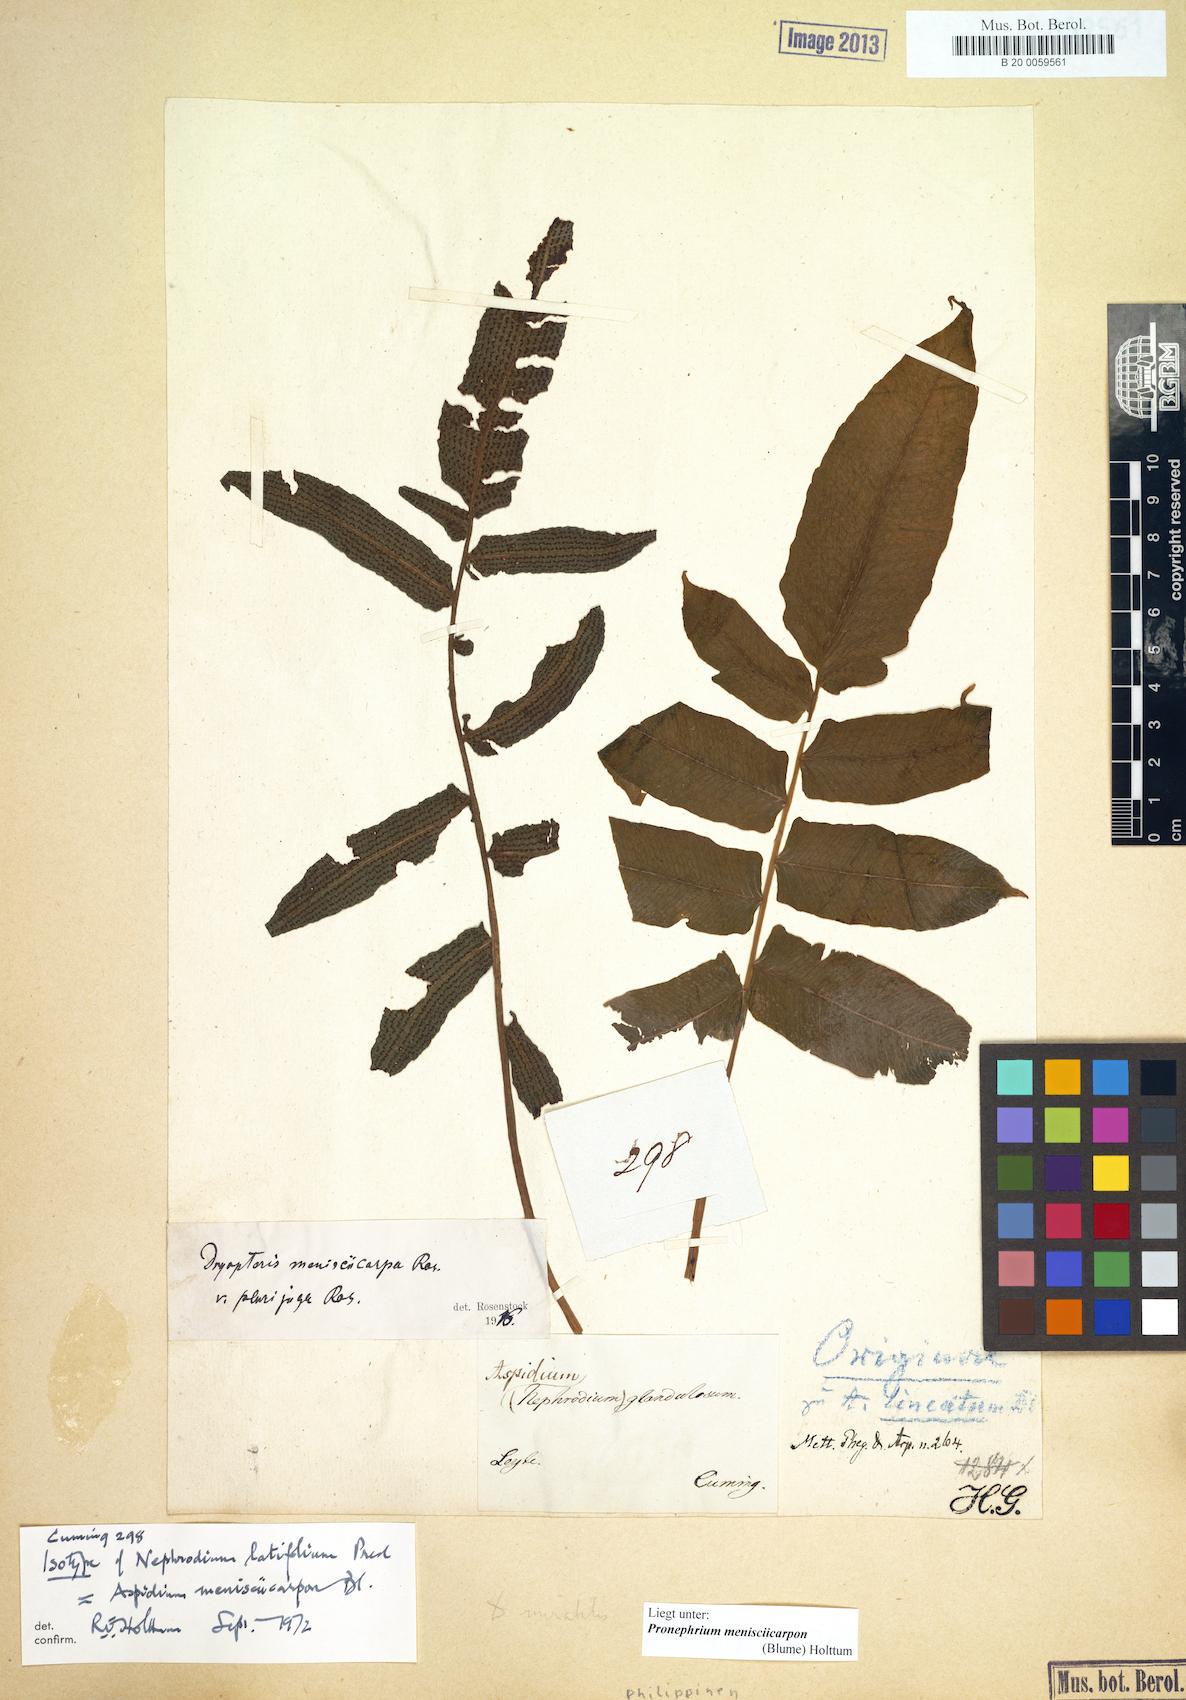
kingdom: Plantae
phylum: Tracheophyta
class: Polypodiopsida
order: Polypodiales
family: Thelypteridaceae
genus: Pronephrium
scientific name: Pronephrium menisciicarpon
